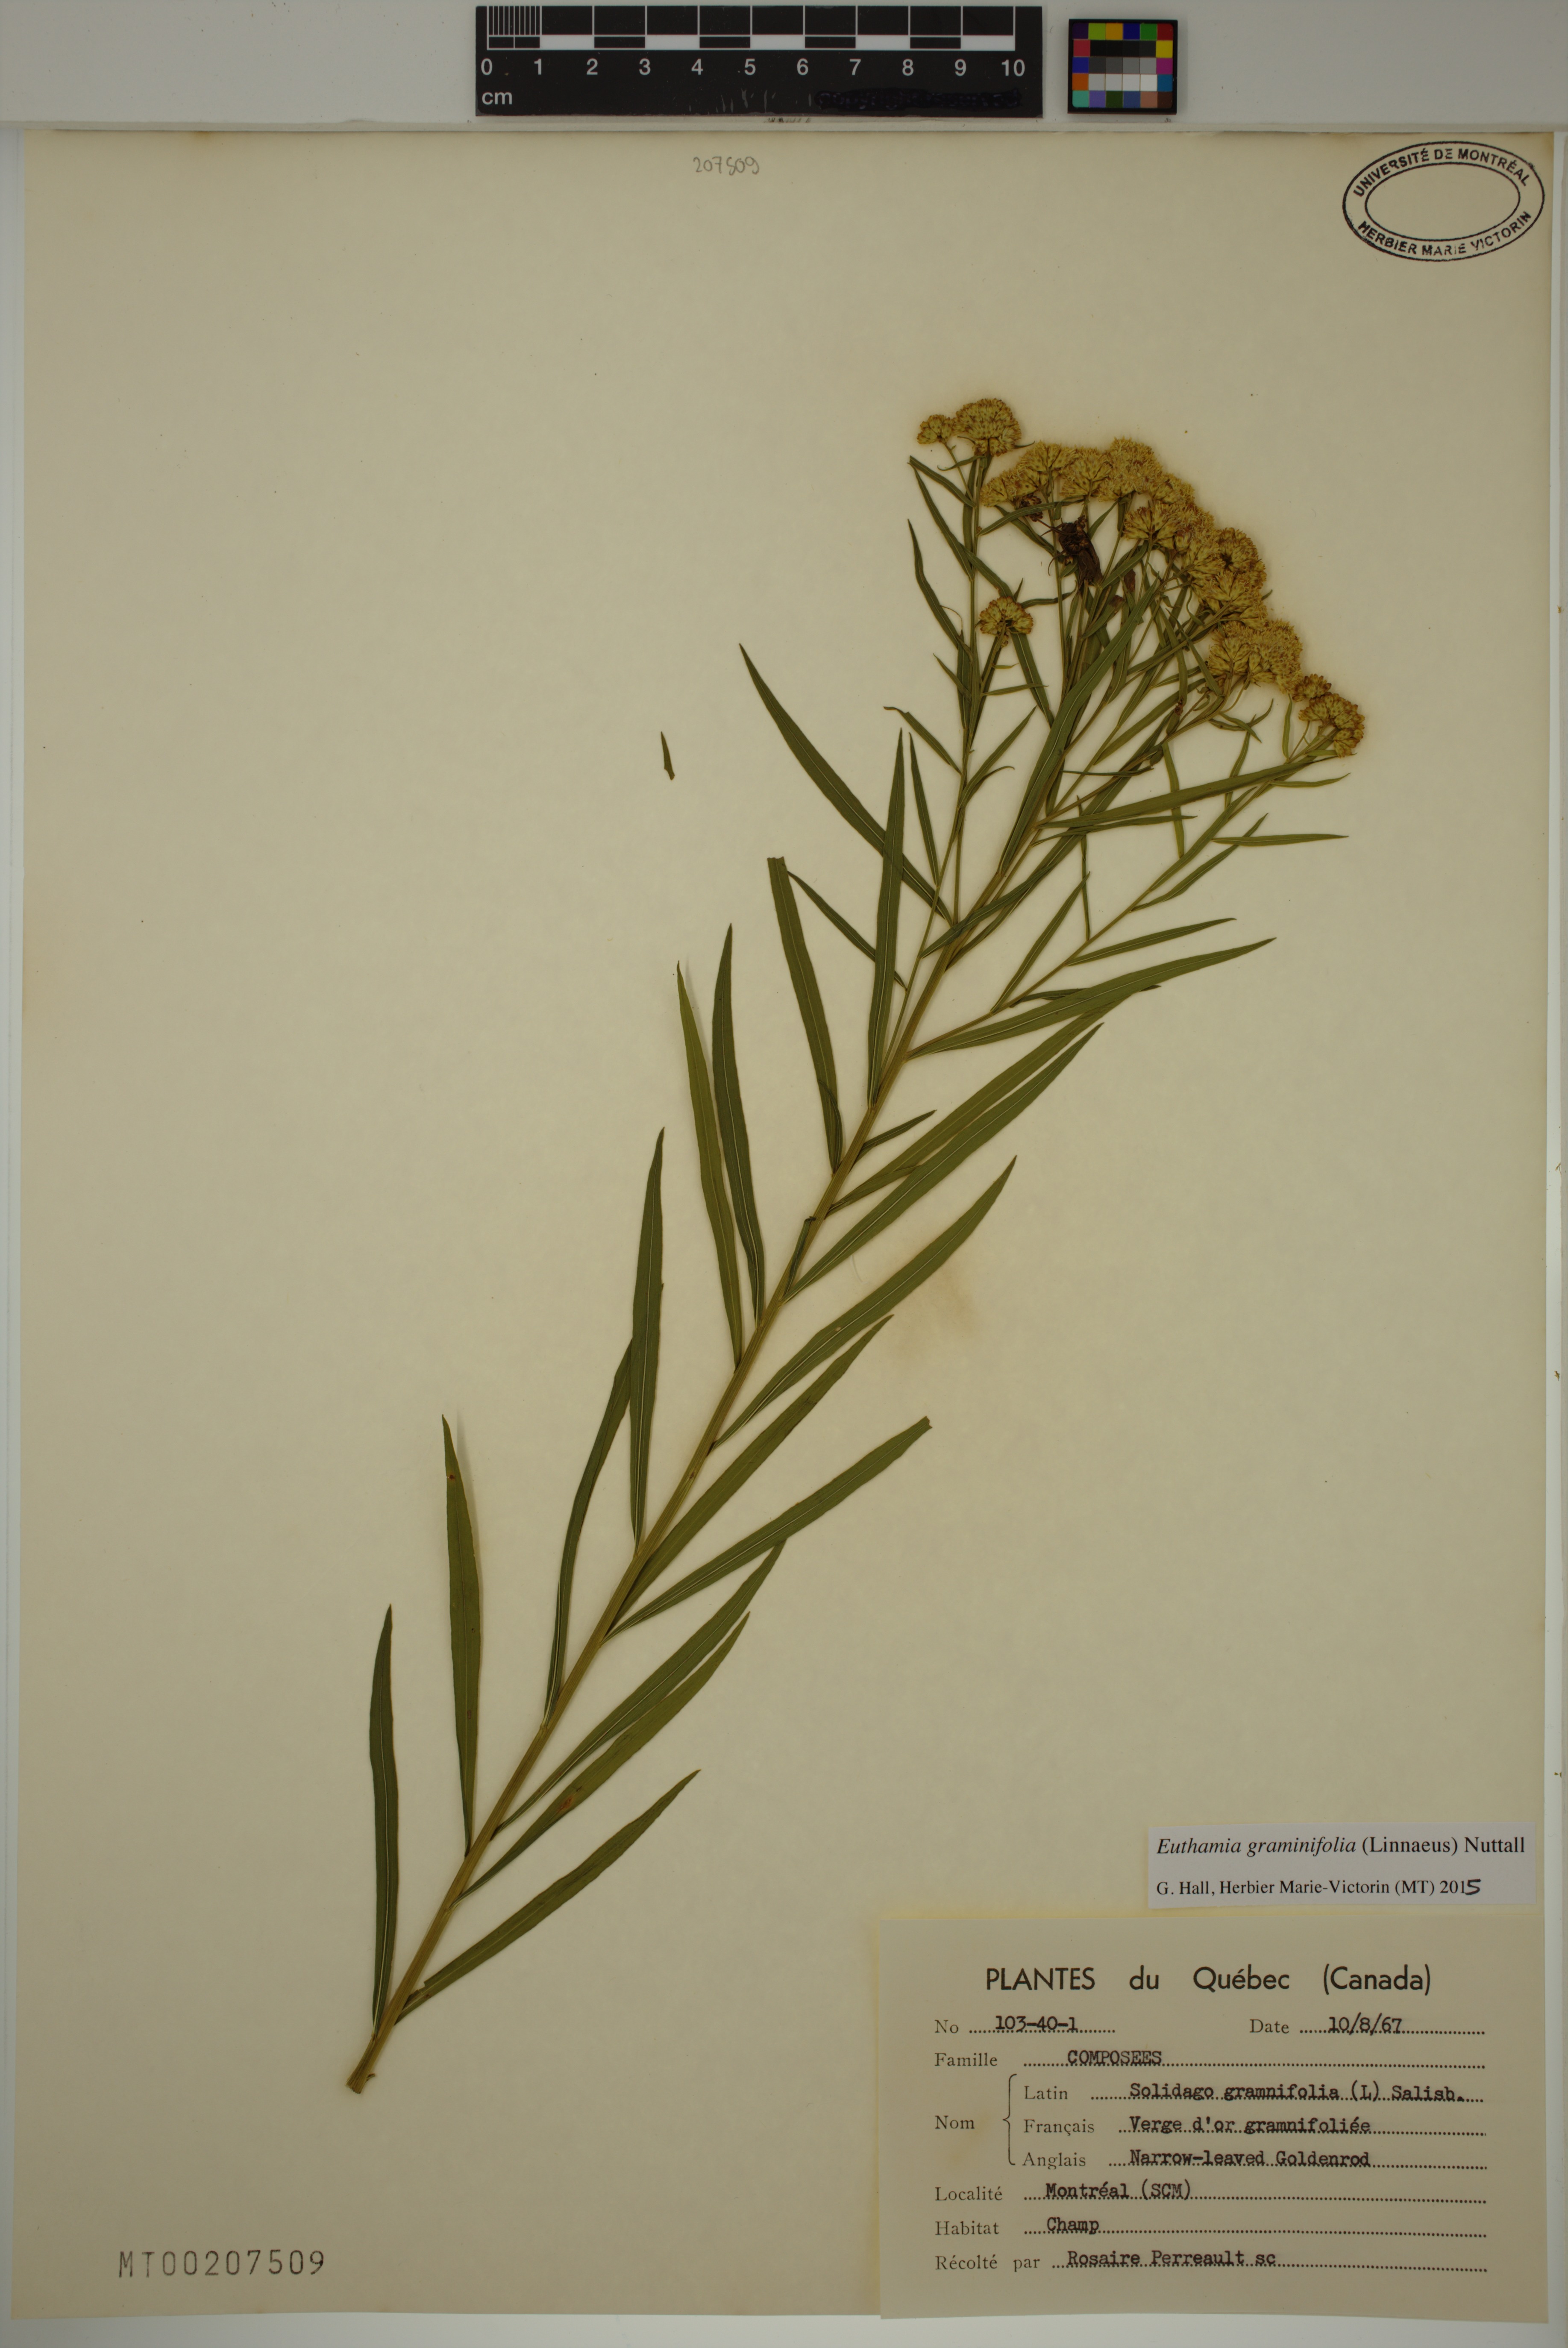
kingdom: Plantae
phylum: Tracheophyta
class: Magnoliopsida
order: Asterales
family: Asteraceae
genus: Euthamia
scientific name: Euthamia graminifolia
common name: Common goldentop
